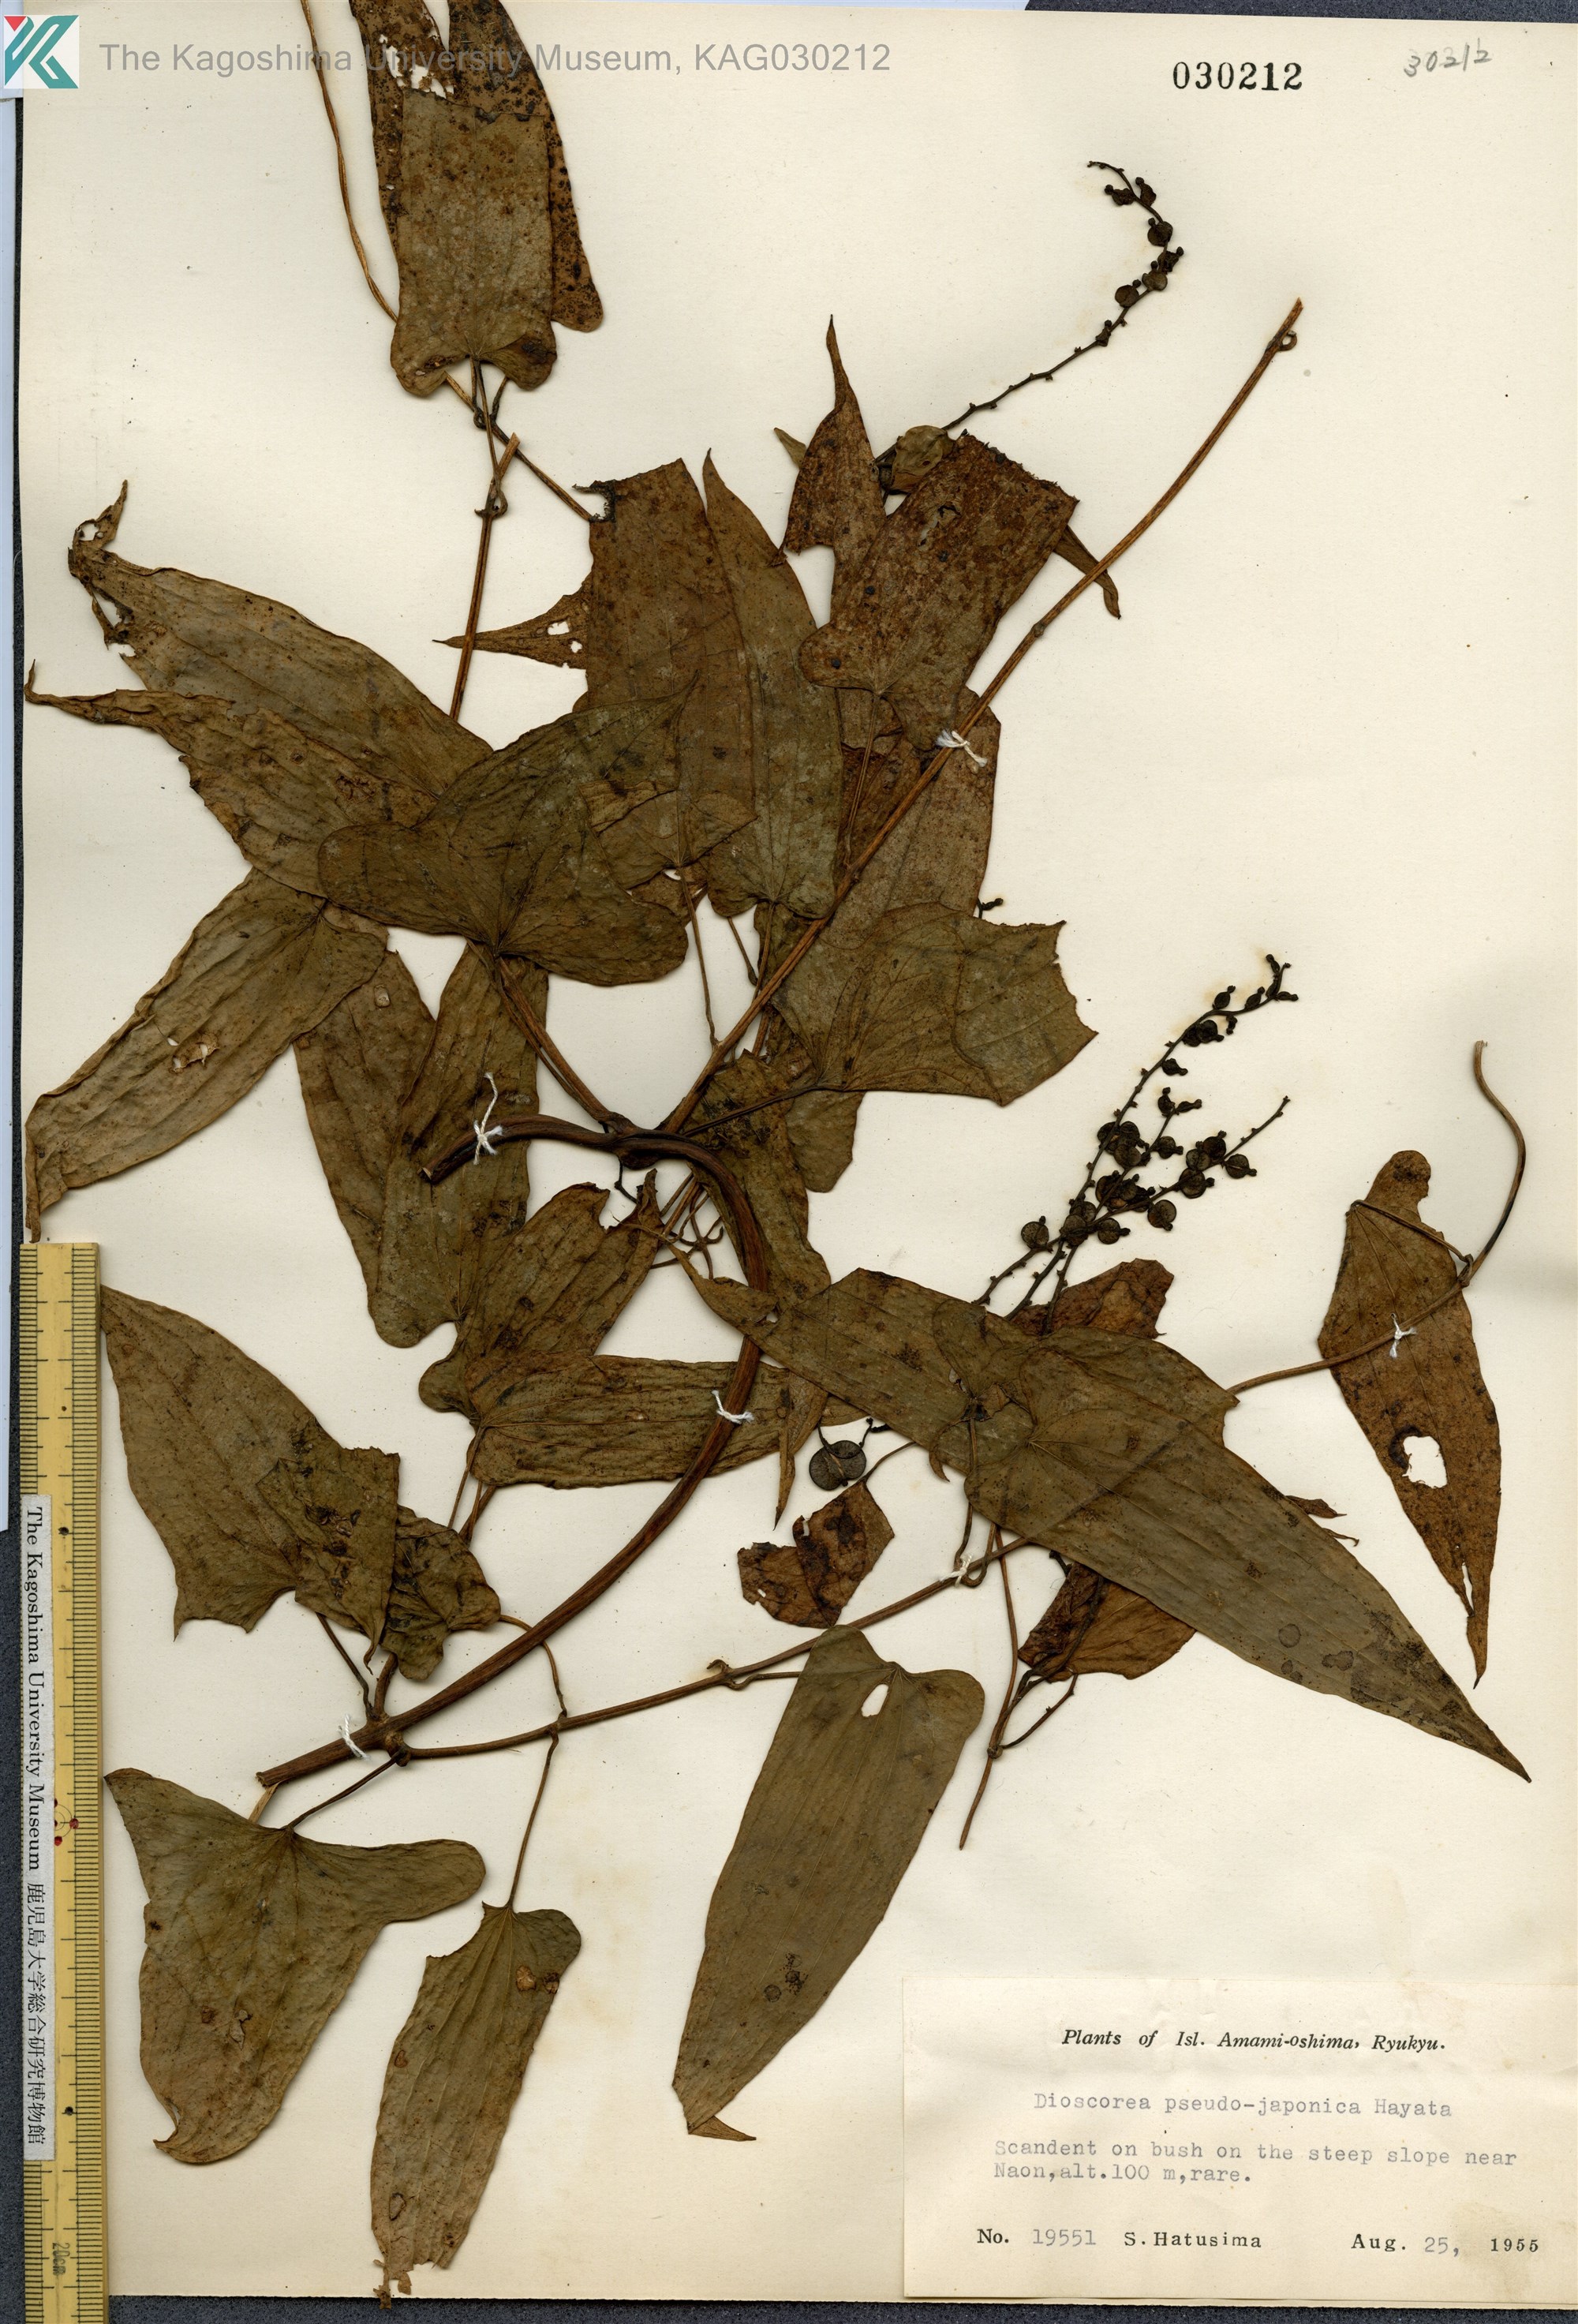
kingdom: Plantae
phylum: Tracheophyta
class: Liliopsida
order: Dioscoreales
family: Dioscoreaceae
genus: Dioscorea
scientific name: Dioscorea pseudojaponica
